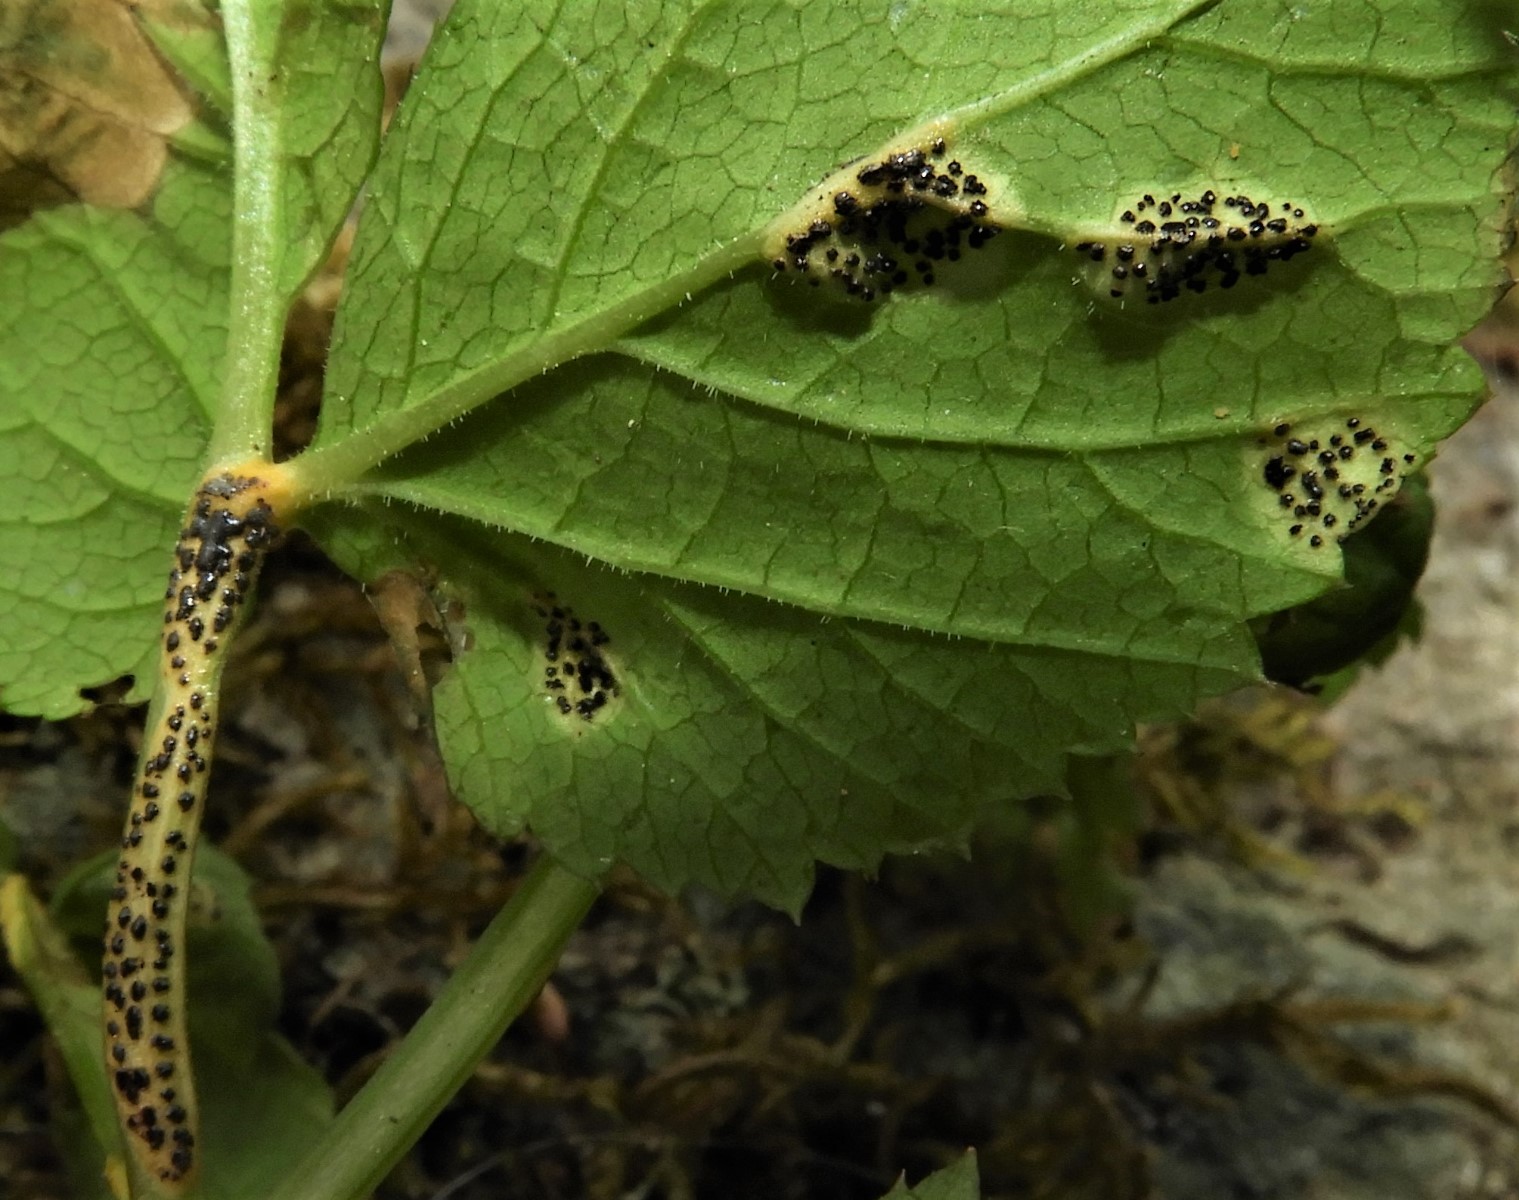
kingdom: Fungi
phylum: Basidiomycota
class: Pucciniomycetes
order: Pucciniales
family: Pucciniaceae
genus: Puccinia
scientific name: Puccinia
